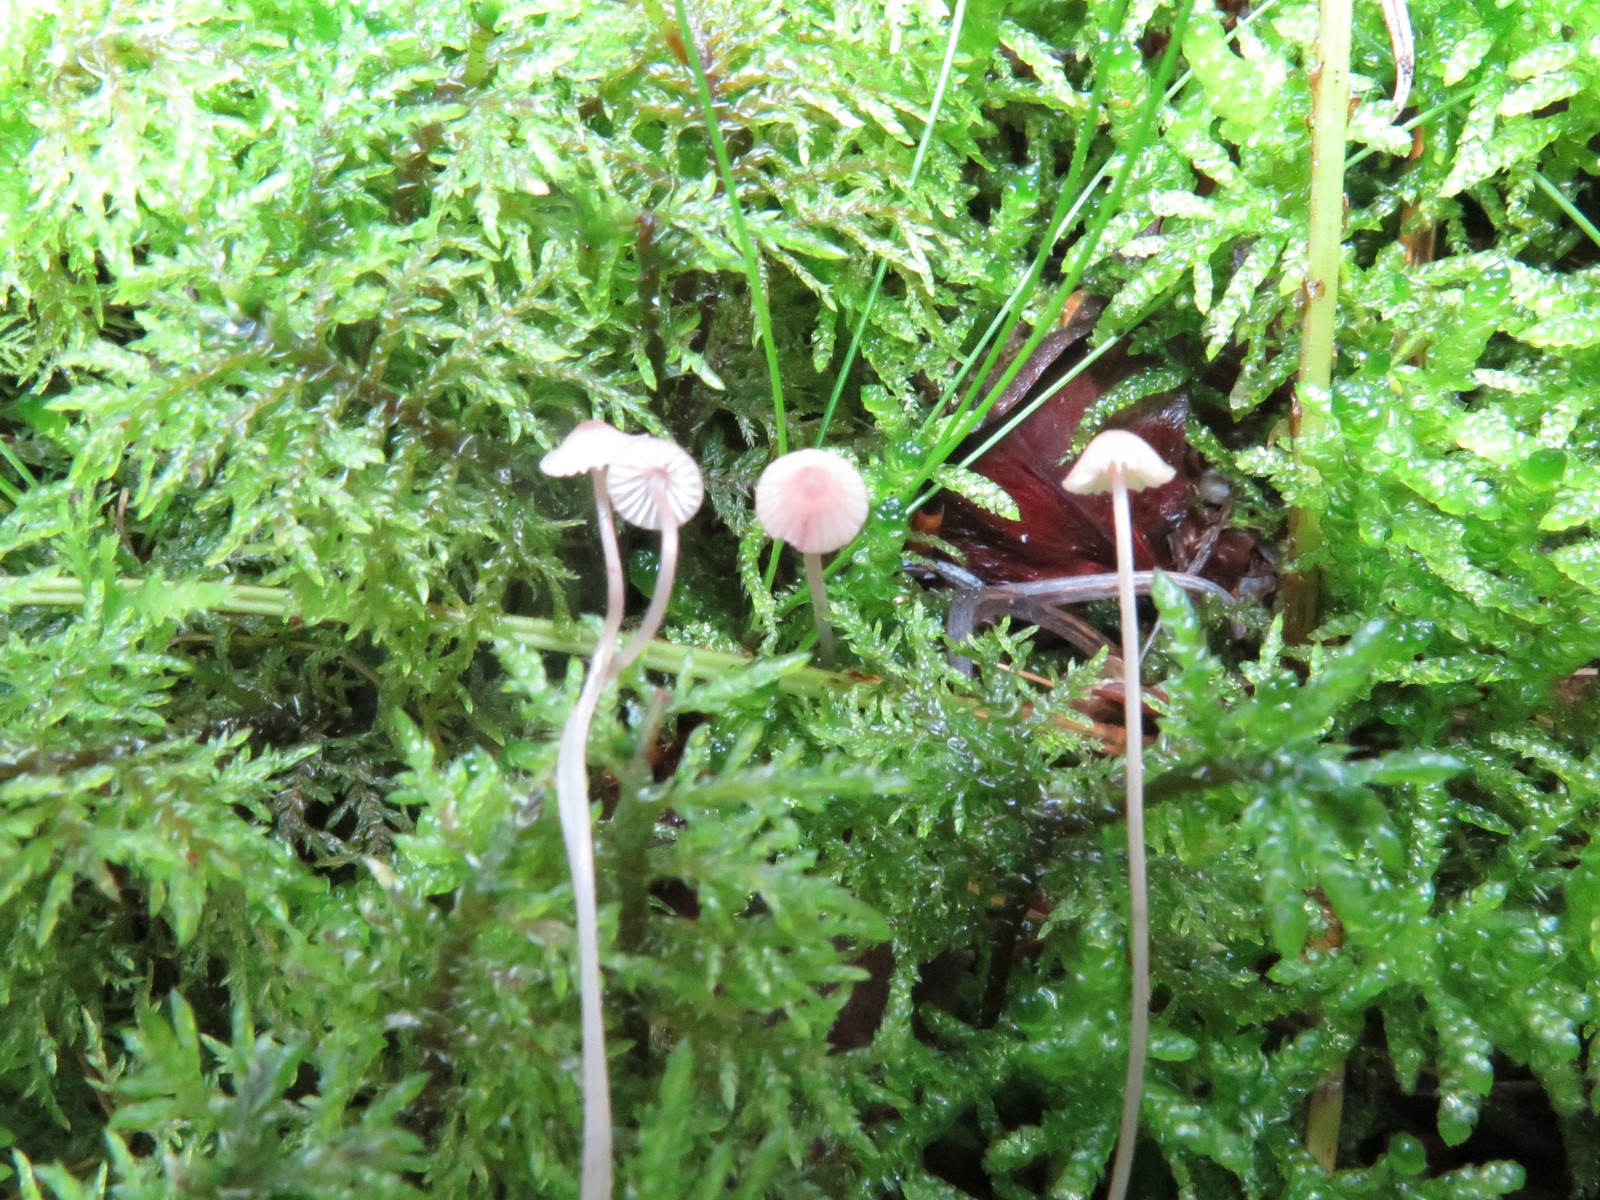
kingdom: Fungi
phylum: Basidiomycota
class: Agaricomycetes
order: Agaricales
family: Mycenaceae
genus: Mycena
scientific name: Mycena sanguinolenta
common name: rødmælket huesvamp
